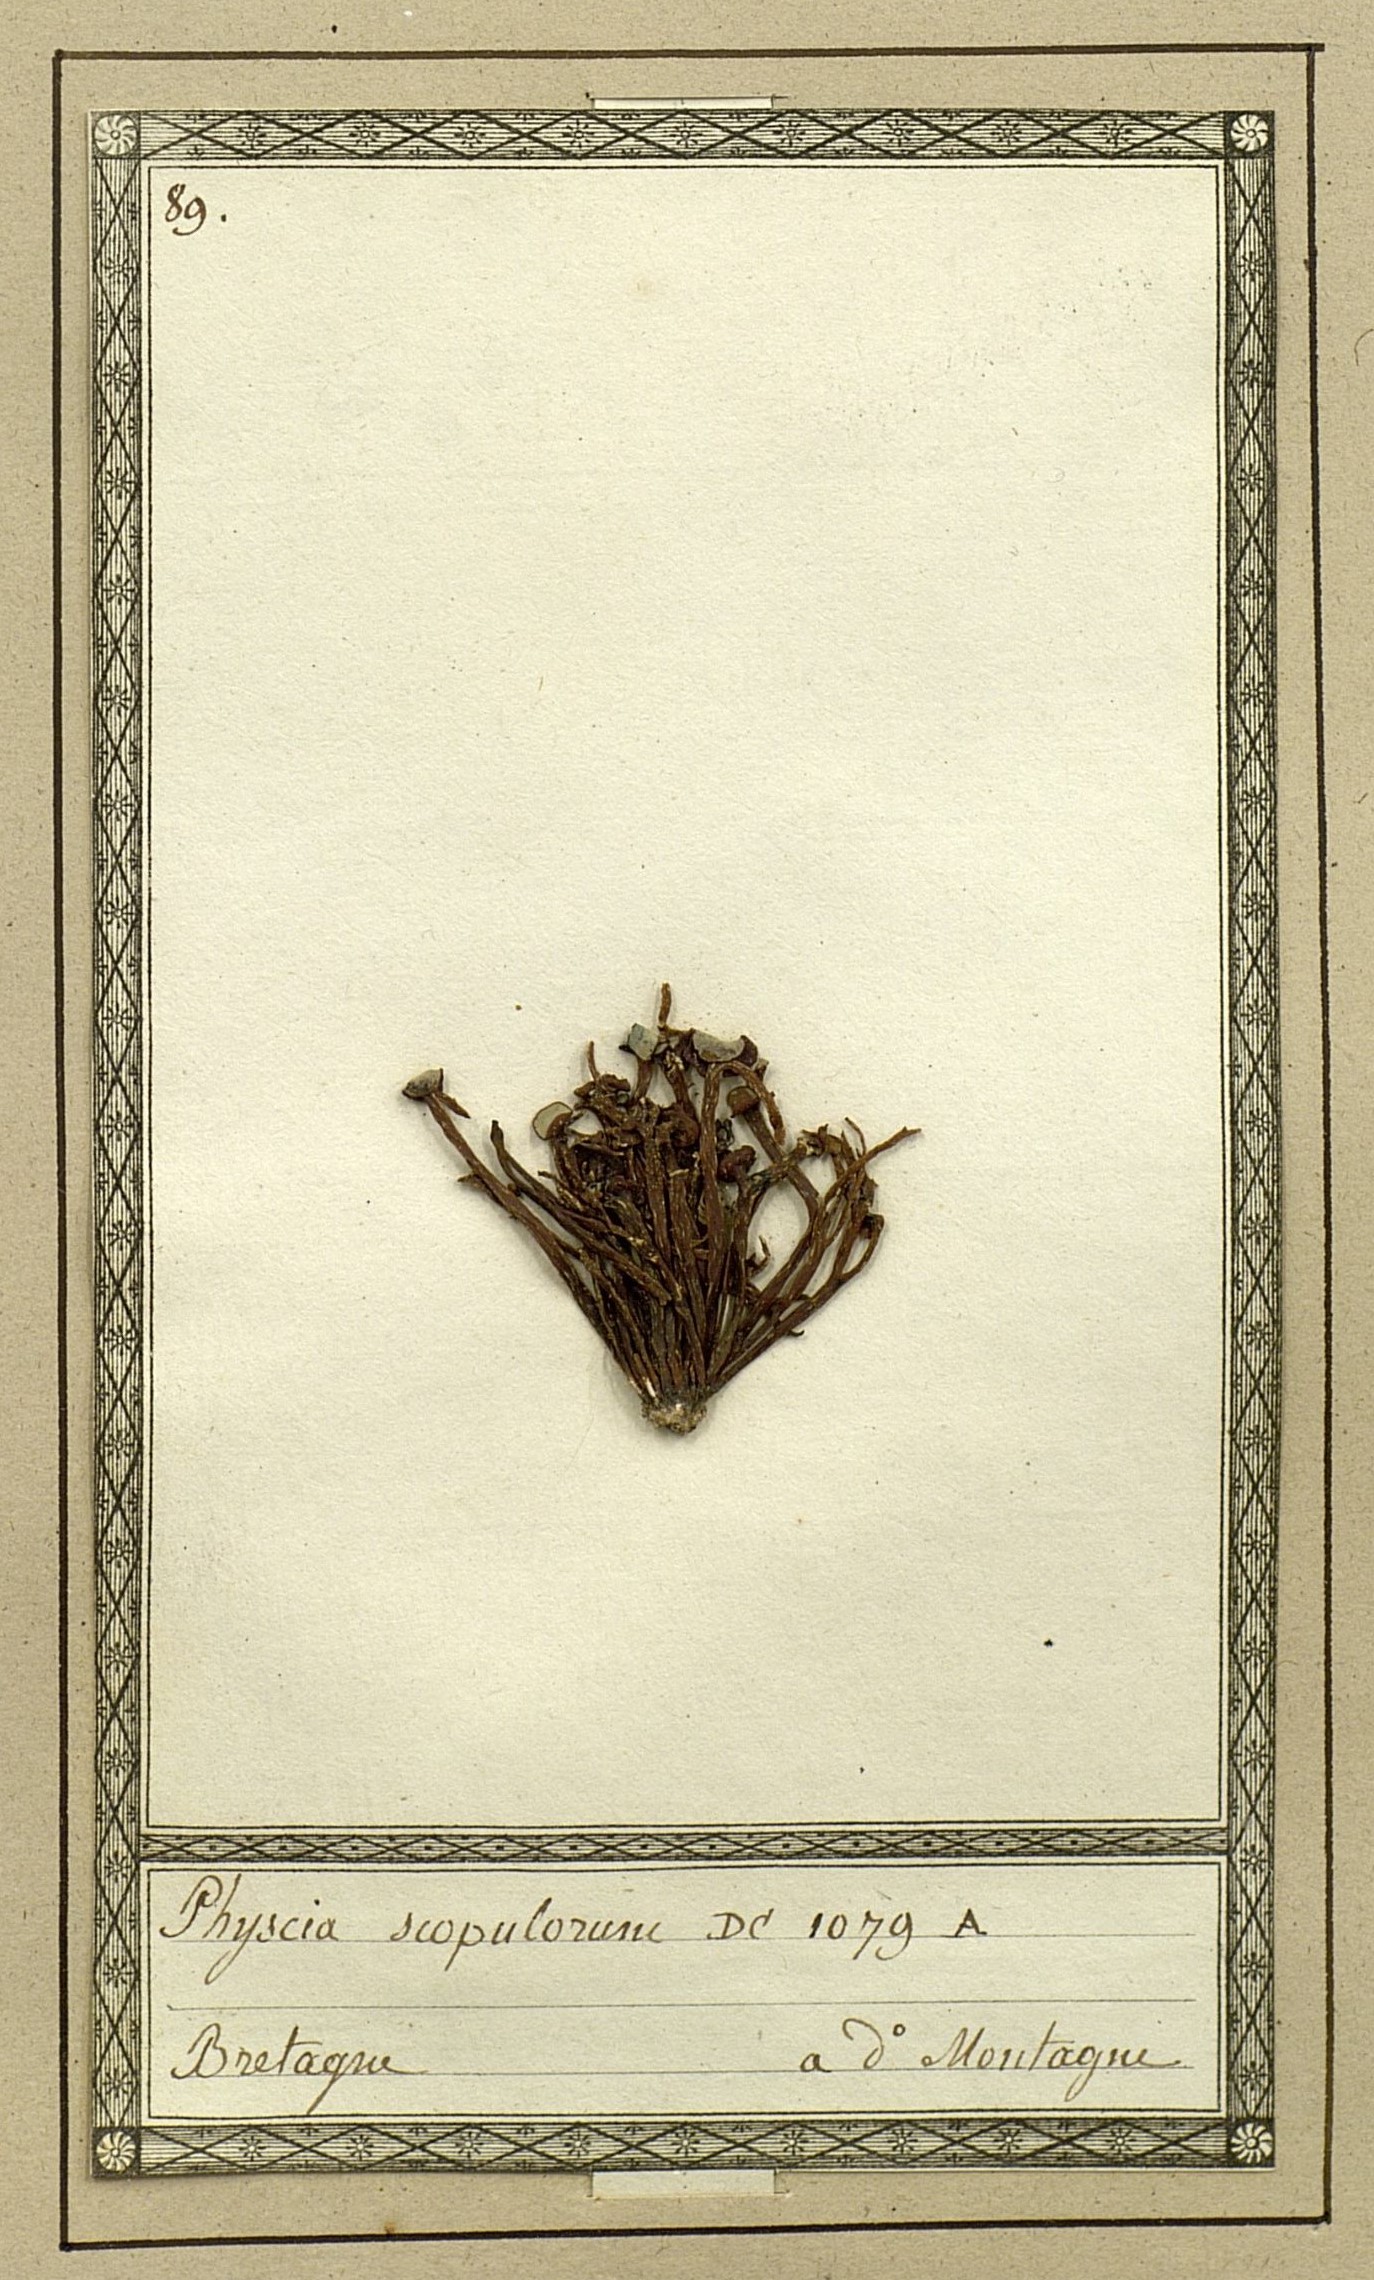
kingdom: Fungi
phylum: Ascomycota
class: Lecanoromycetes
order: Caliciales
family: Physciaceae
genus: Physcia
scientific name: Physcia mediterranea
